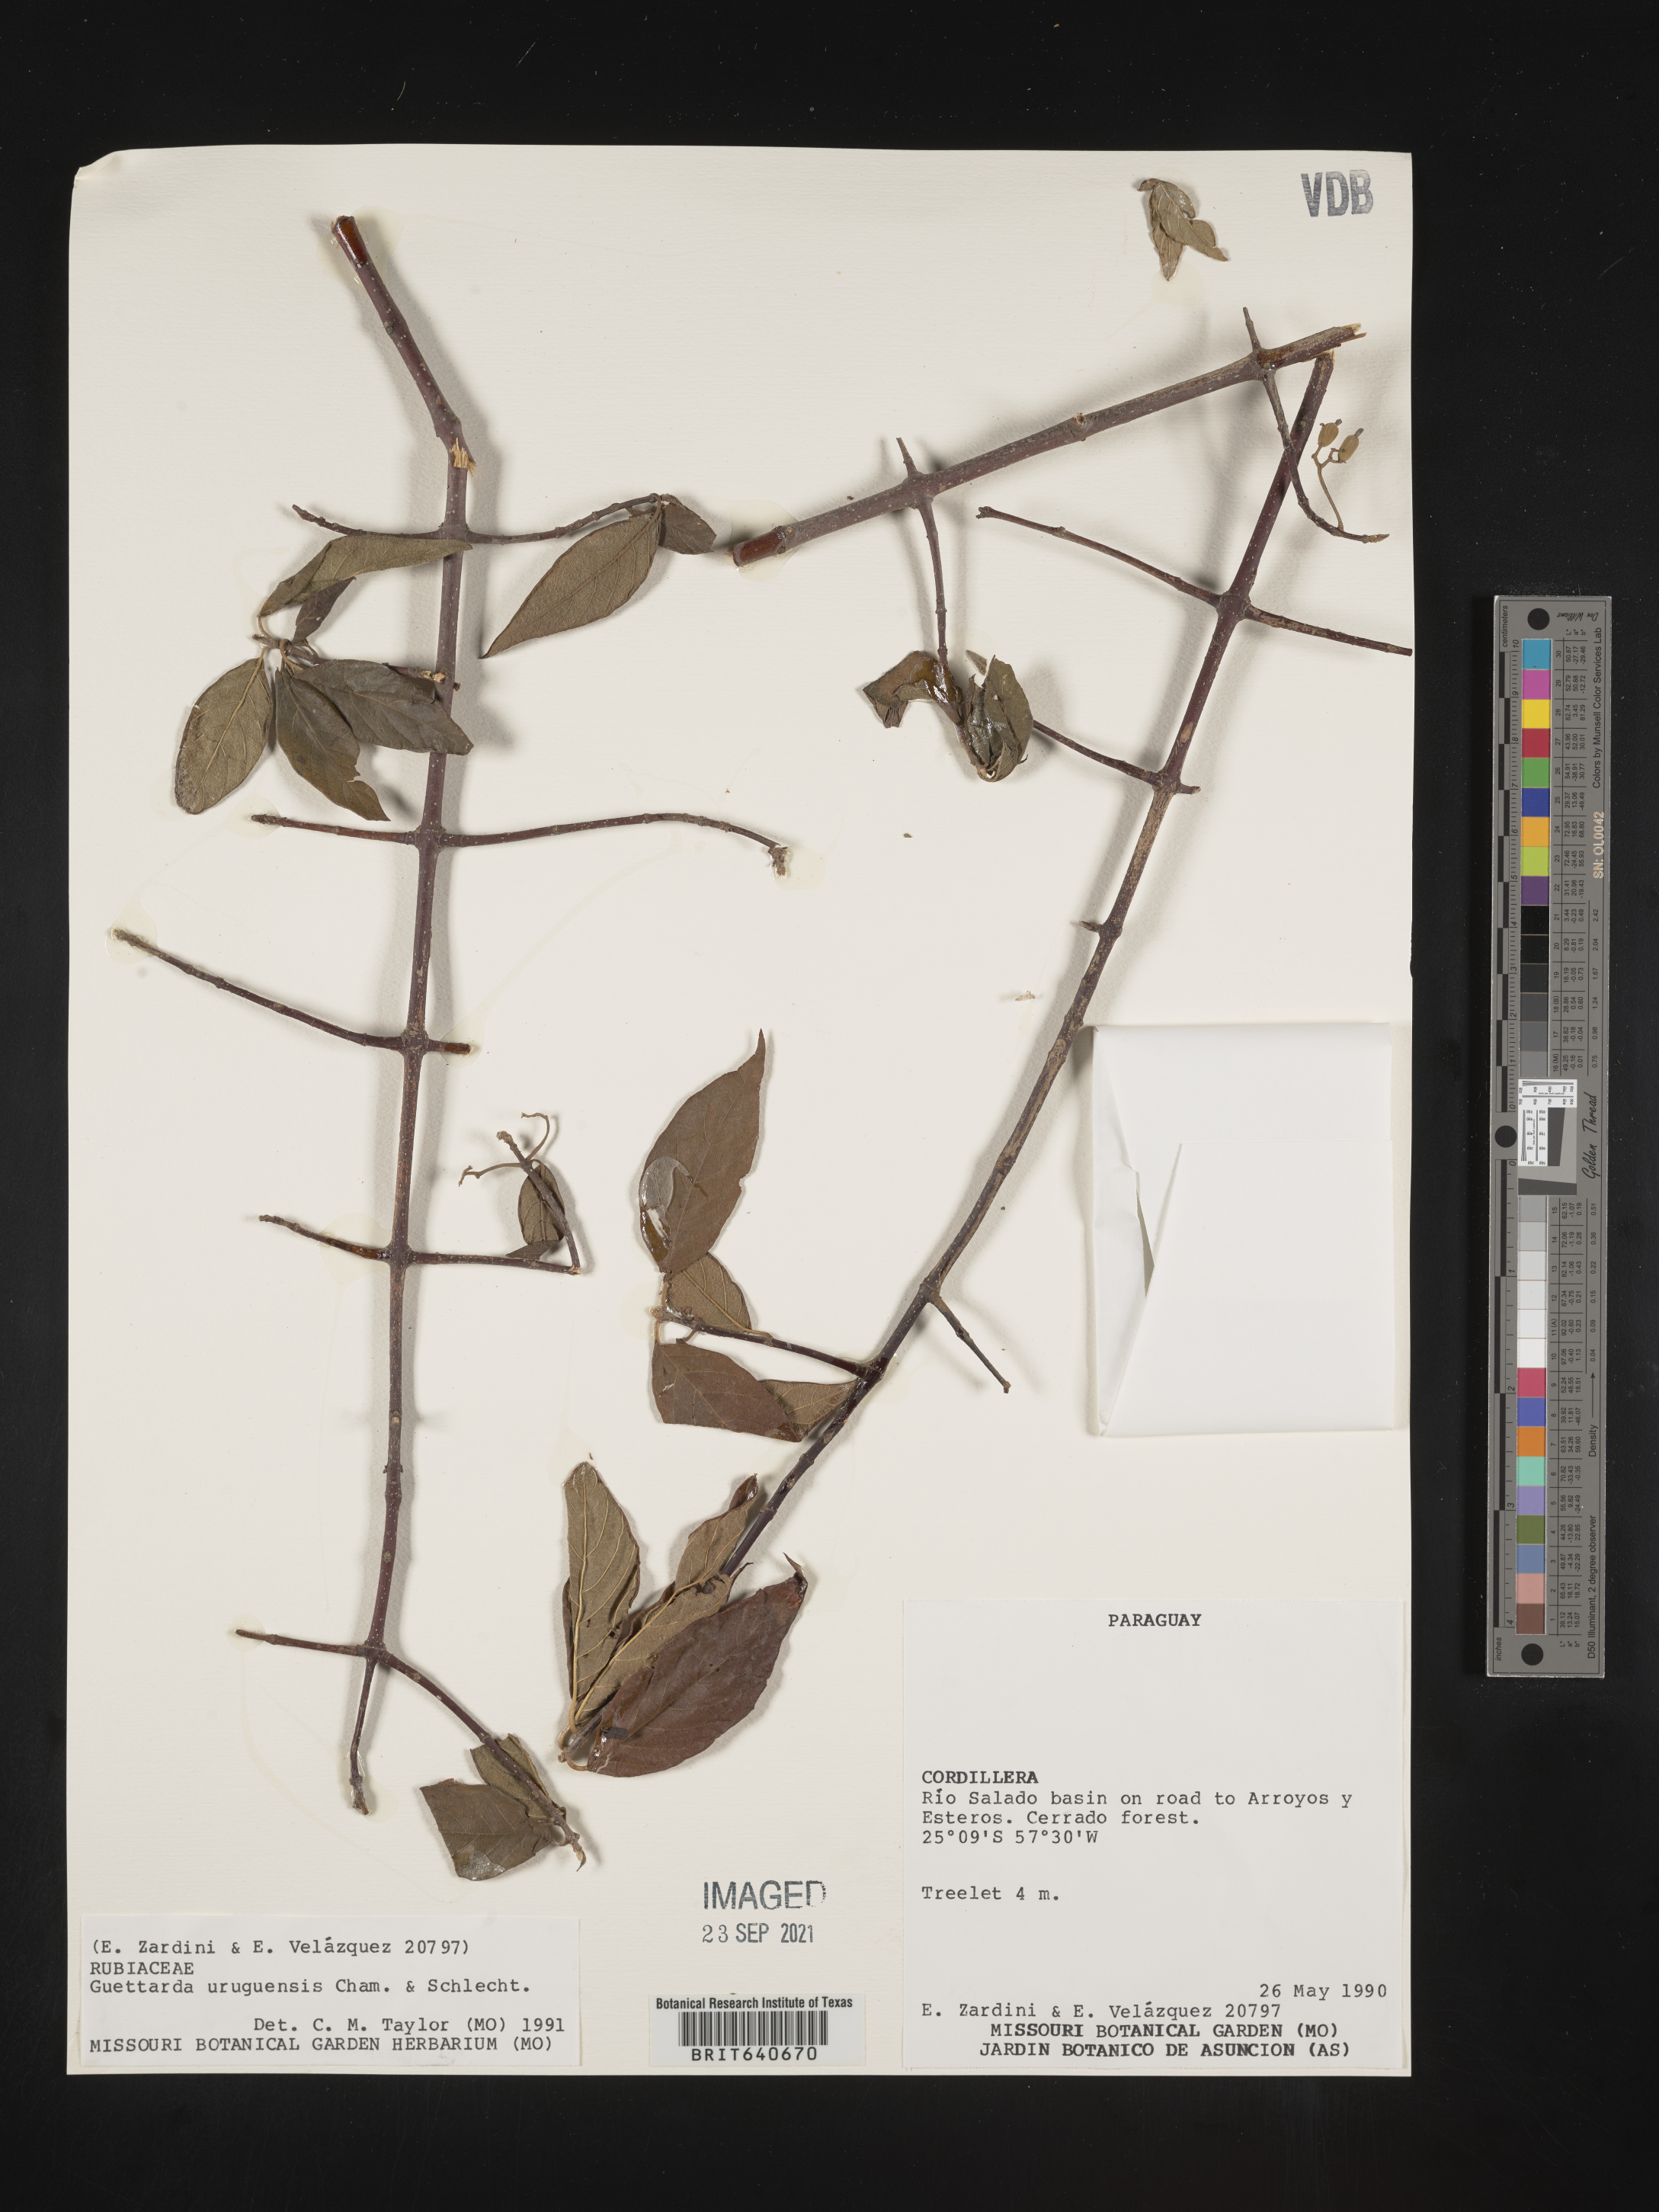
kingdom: Plantae
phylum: Tracheophyta
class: Magnoliopsida
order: Gentianales
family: Rubiaceae
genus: Guettarda
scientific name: Guettarda
